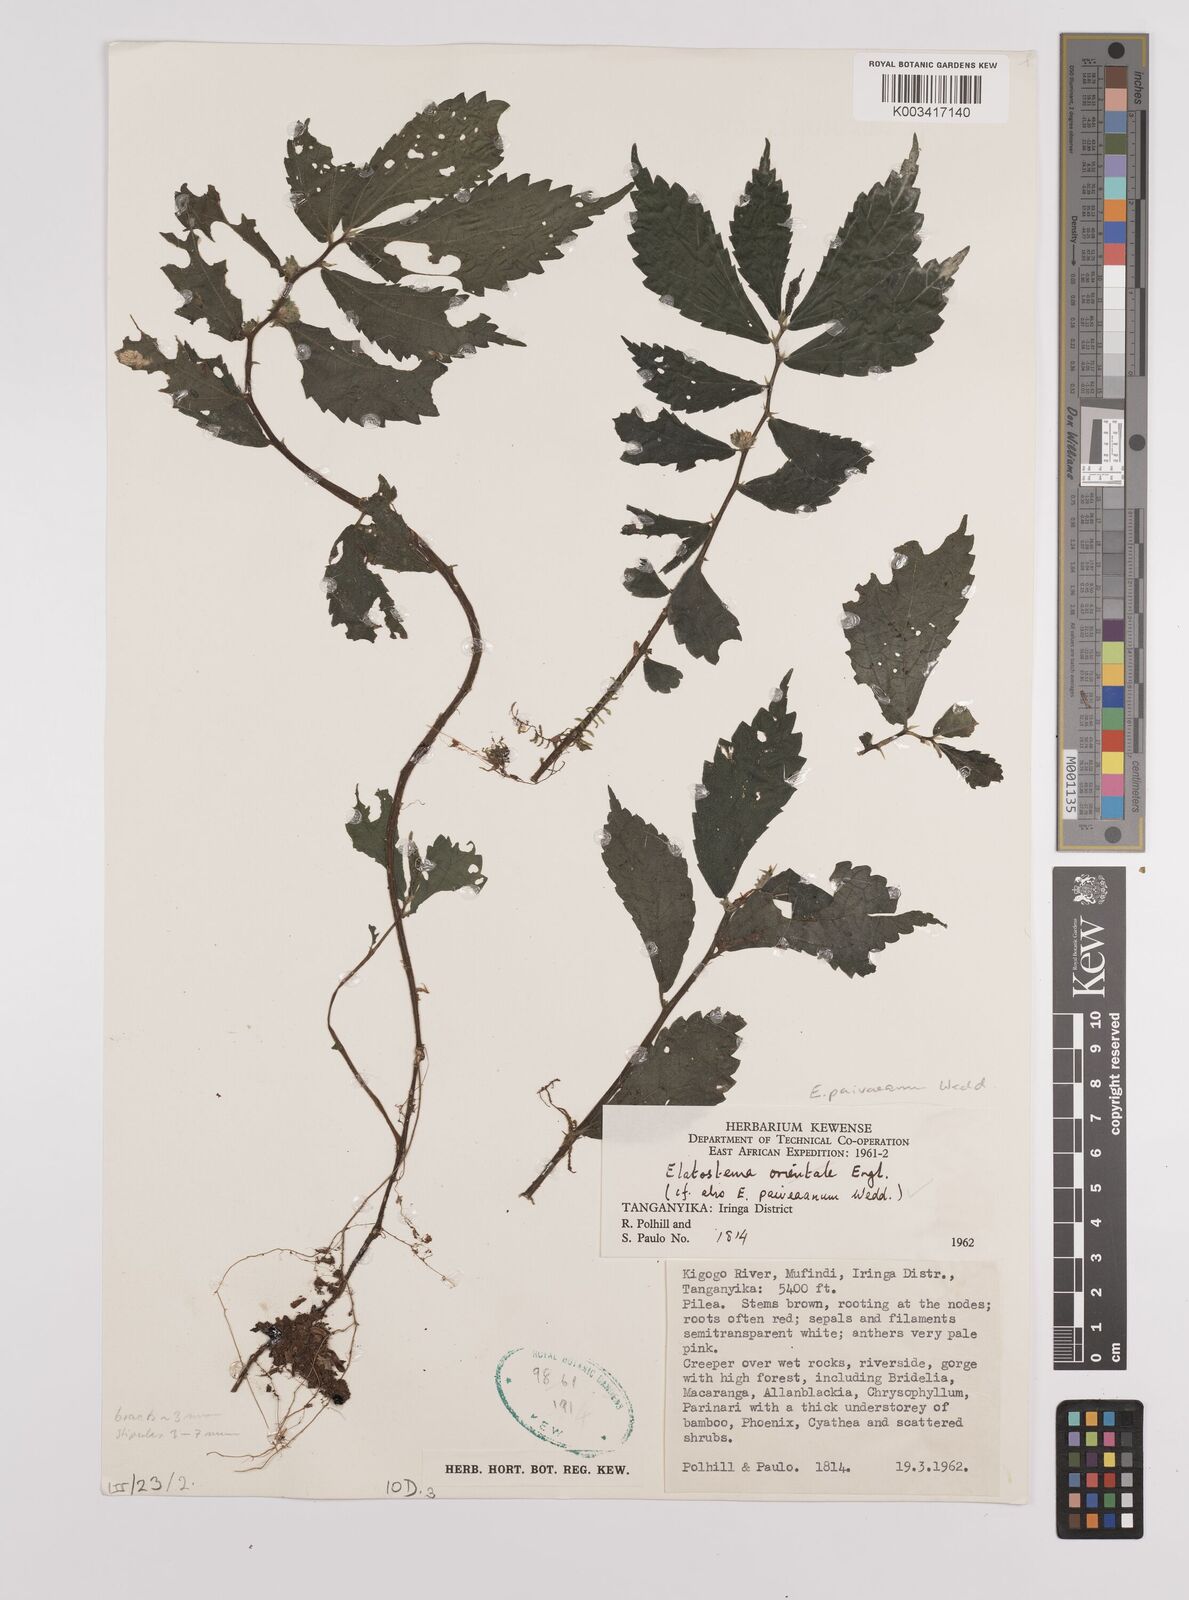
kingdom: Plantae
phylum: Tracheophyta
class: Magnoliopsida
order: Rosales
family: Urticaceae
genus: Elatostema
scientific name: Elatostema paivaeanum
